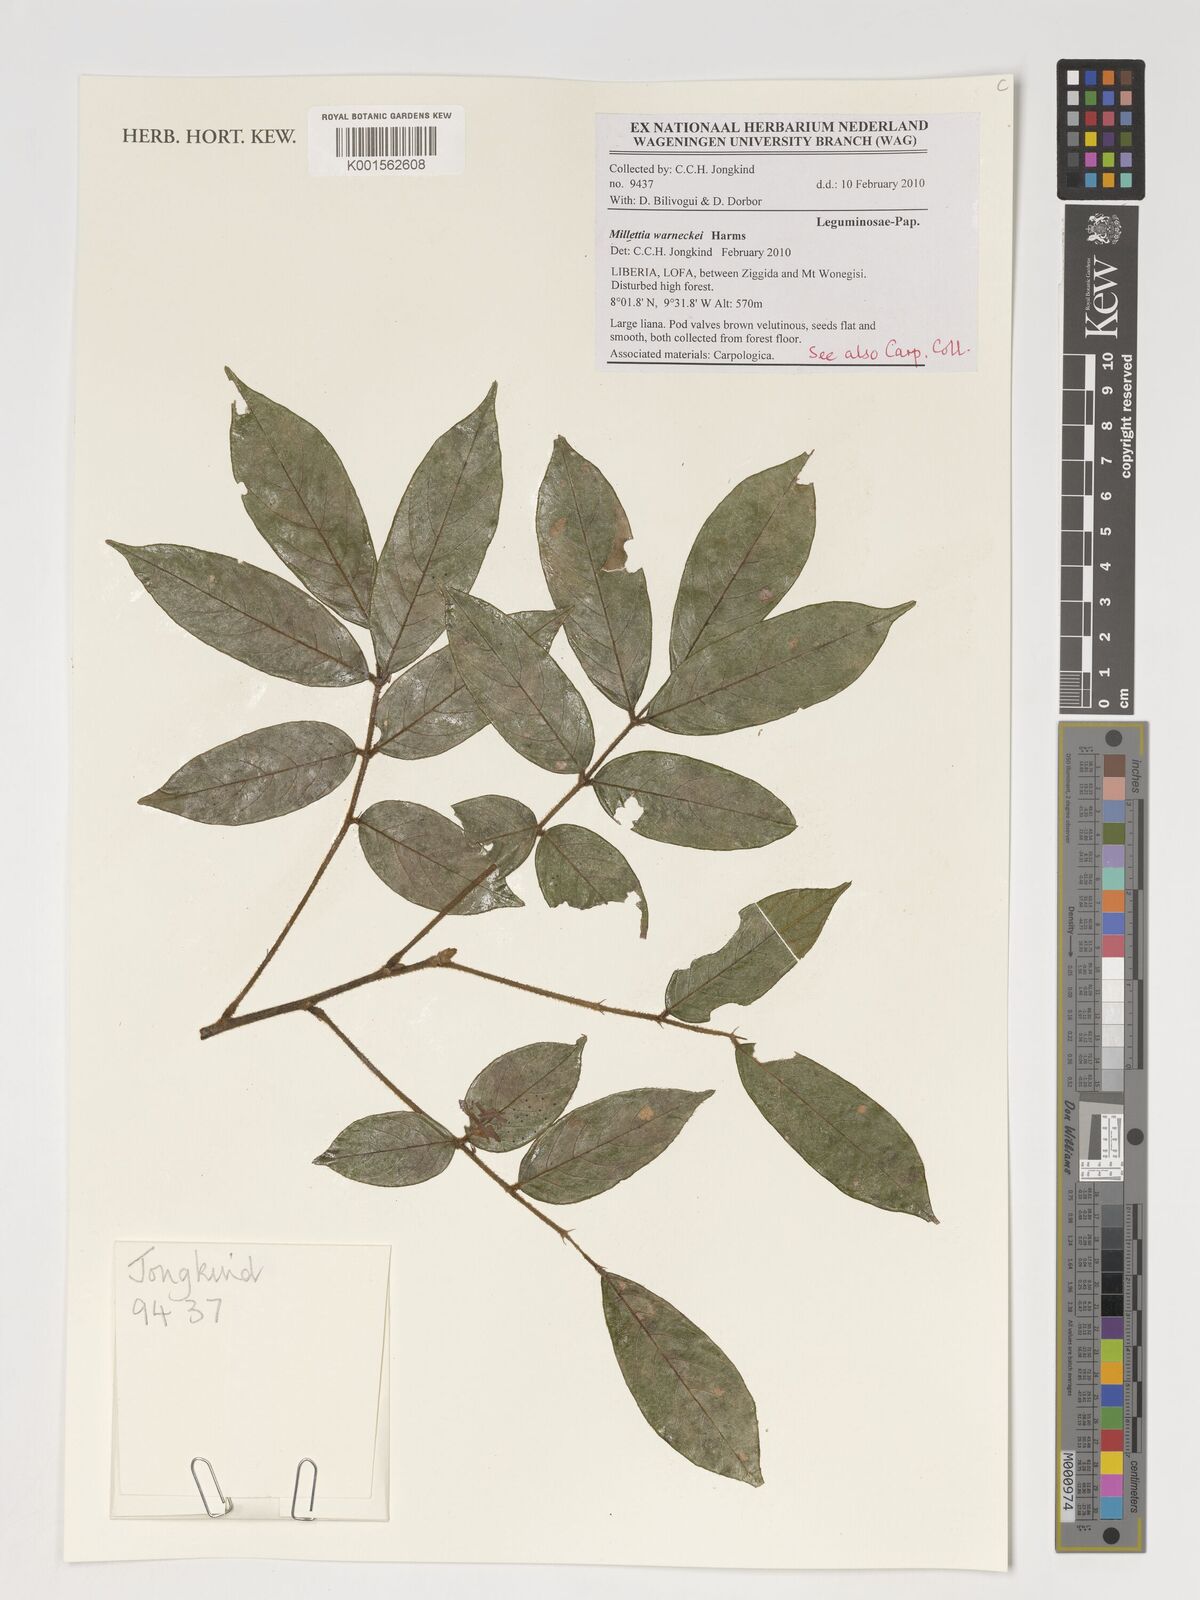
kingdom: Plantae
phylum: Tracheophyta
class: Magnoliopsida
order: Fabales
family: Fabaceae
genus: Millettia
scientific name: Millettia warneckei
